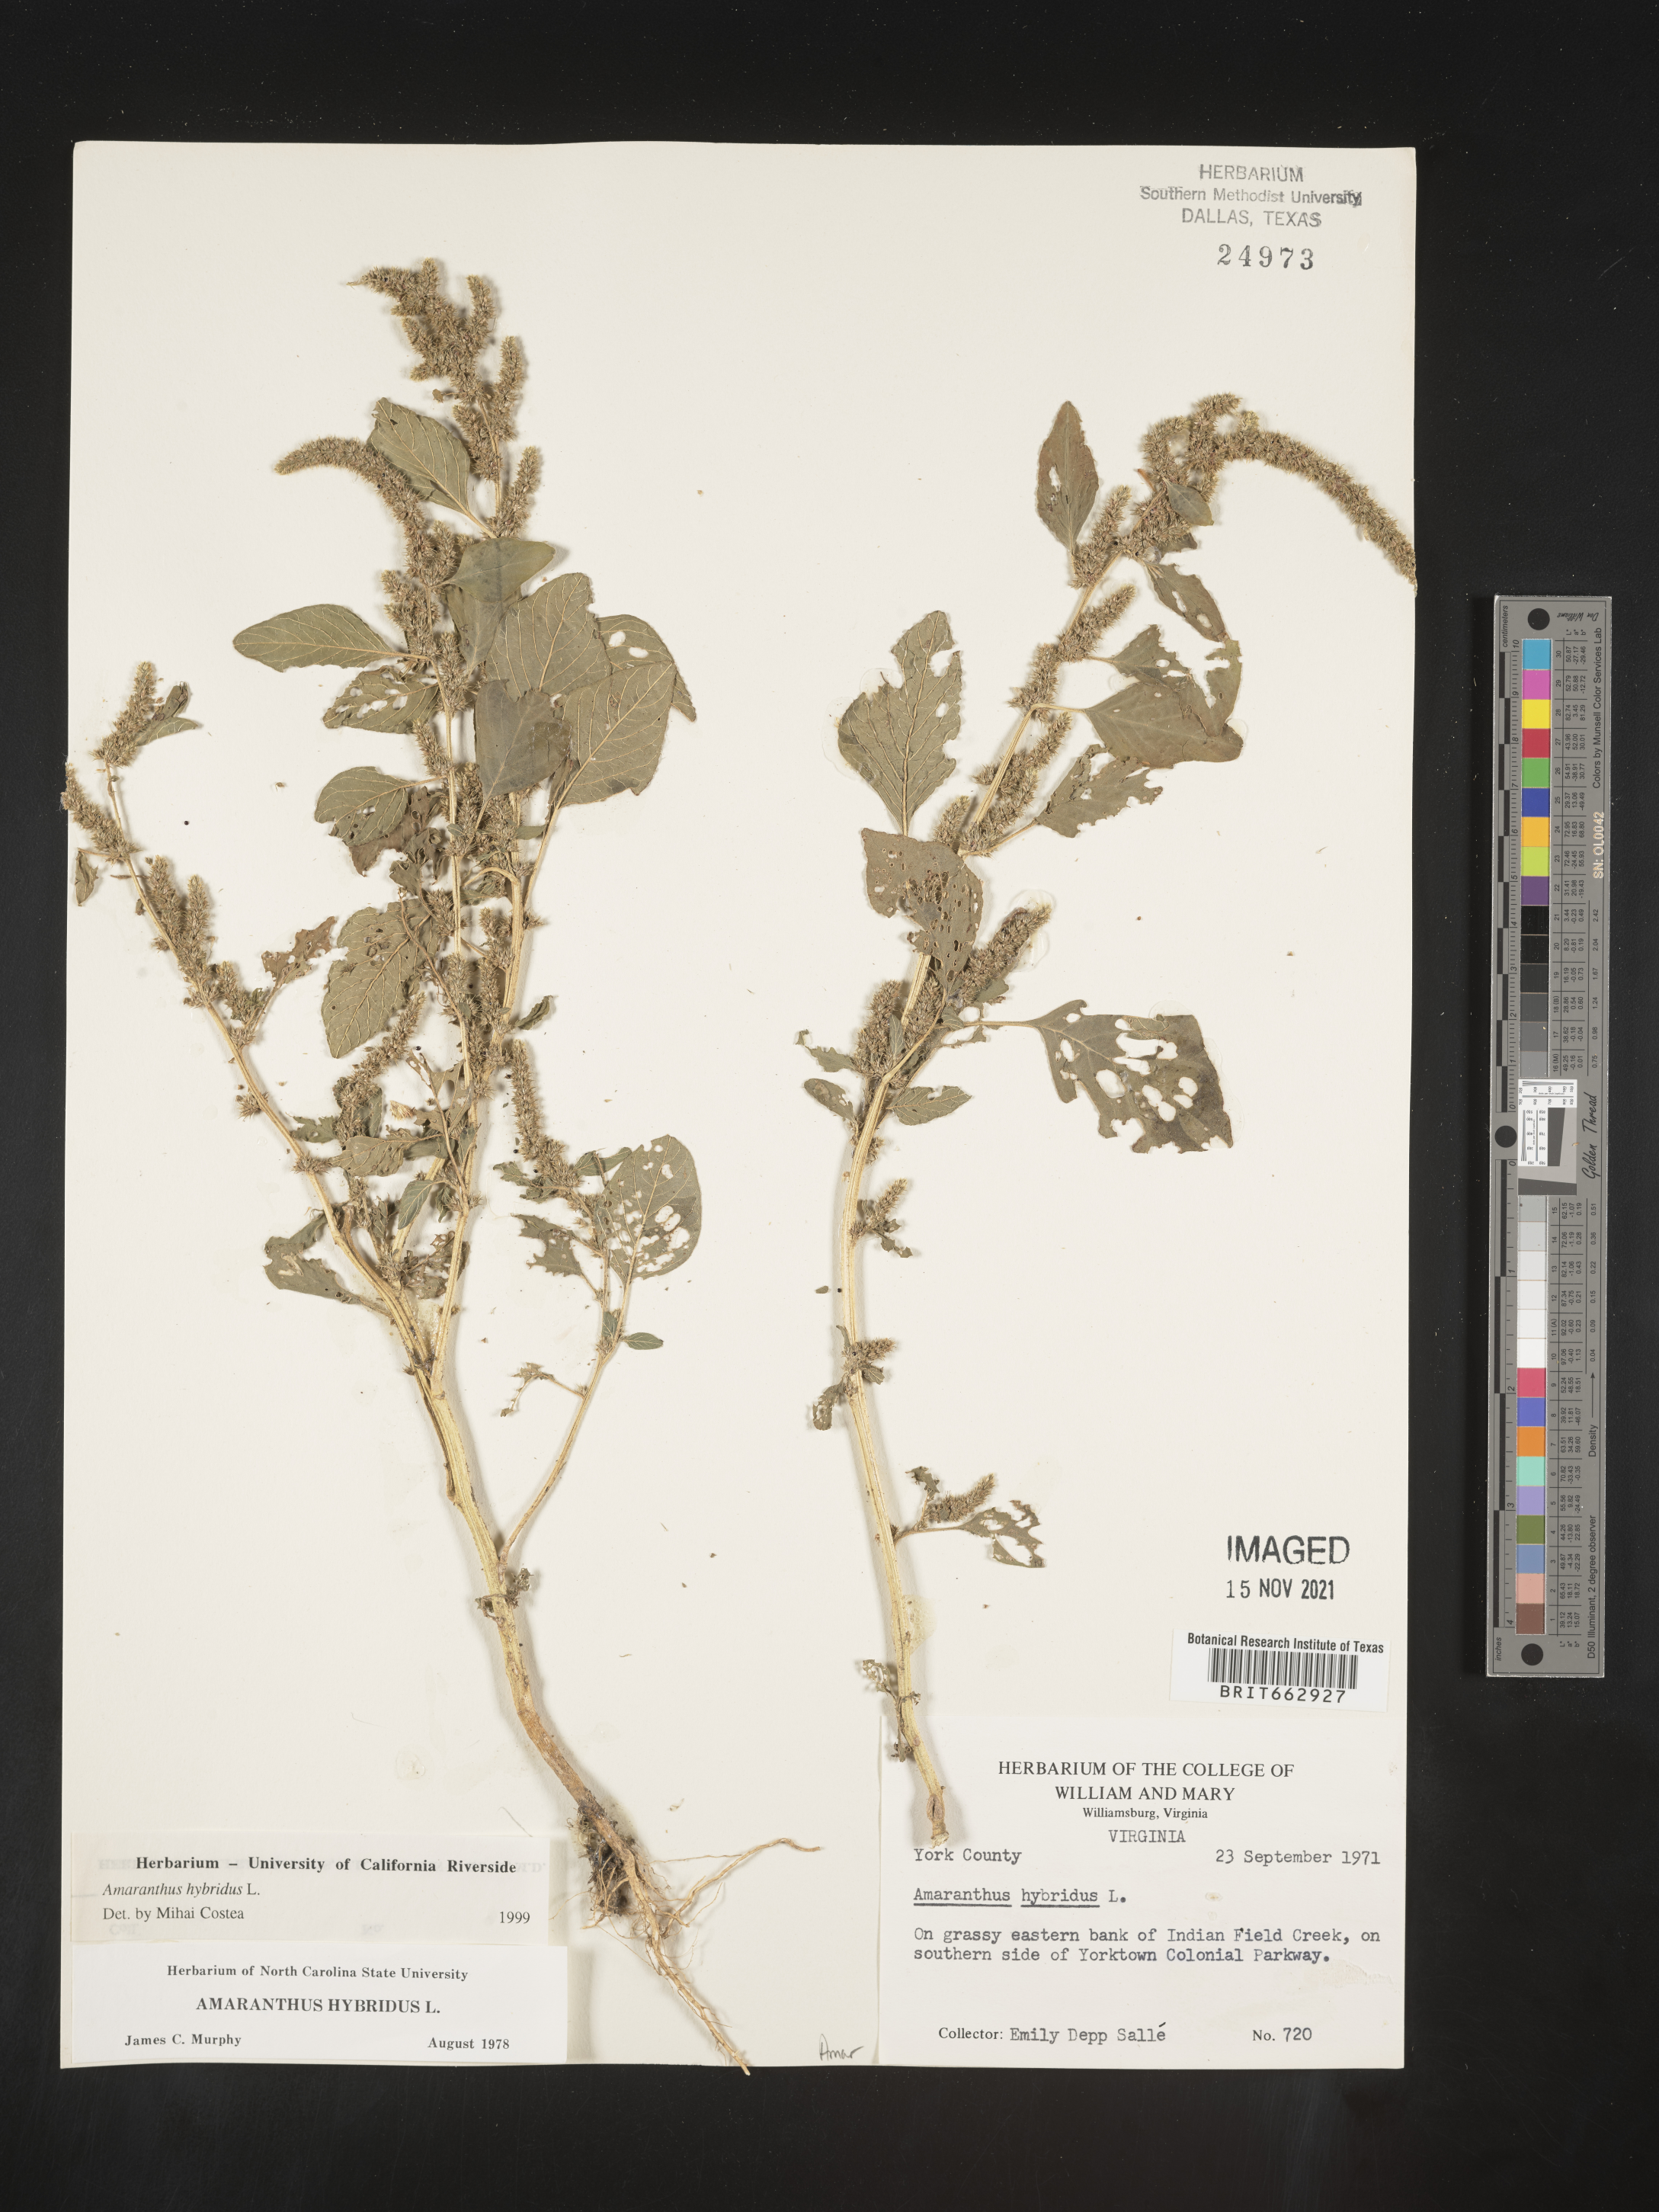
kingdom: Plantae
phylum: Tracheophyta
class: Magnoliopsida
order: Caryophyllales
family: Amaranthaceae
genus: Amaranthus
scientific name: Amaranthus hybridus
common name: Green amaranth
